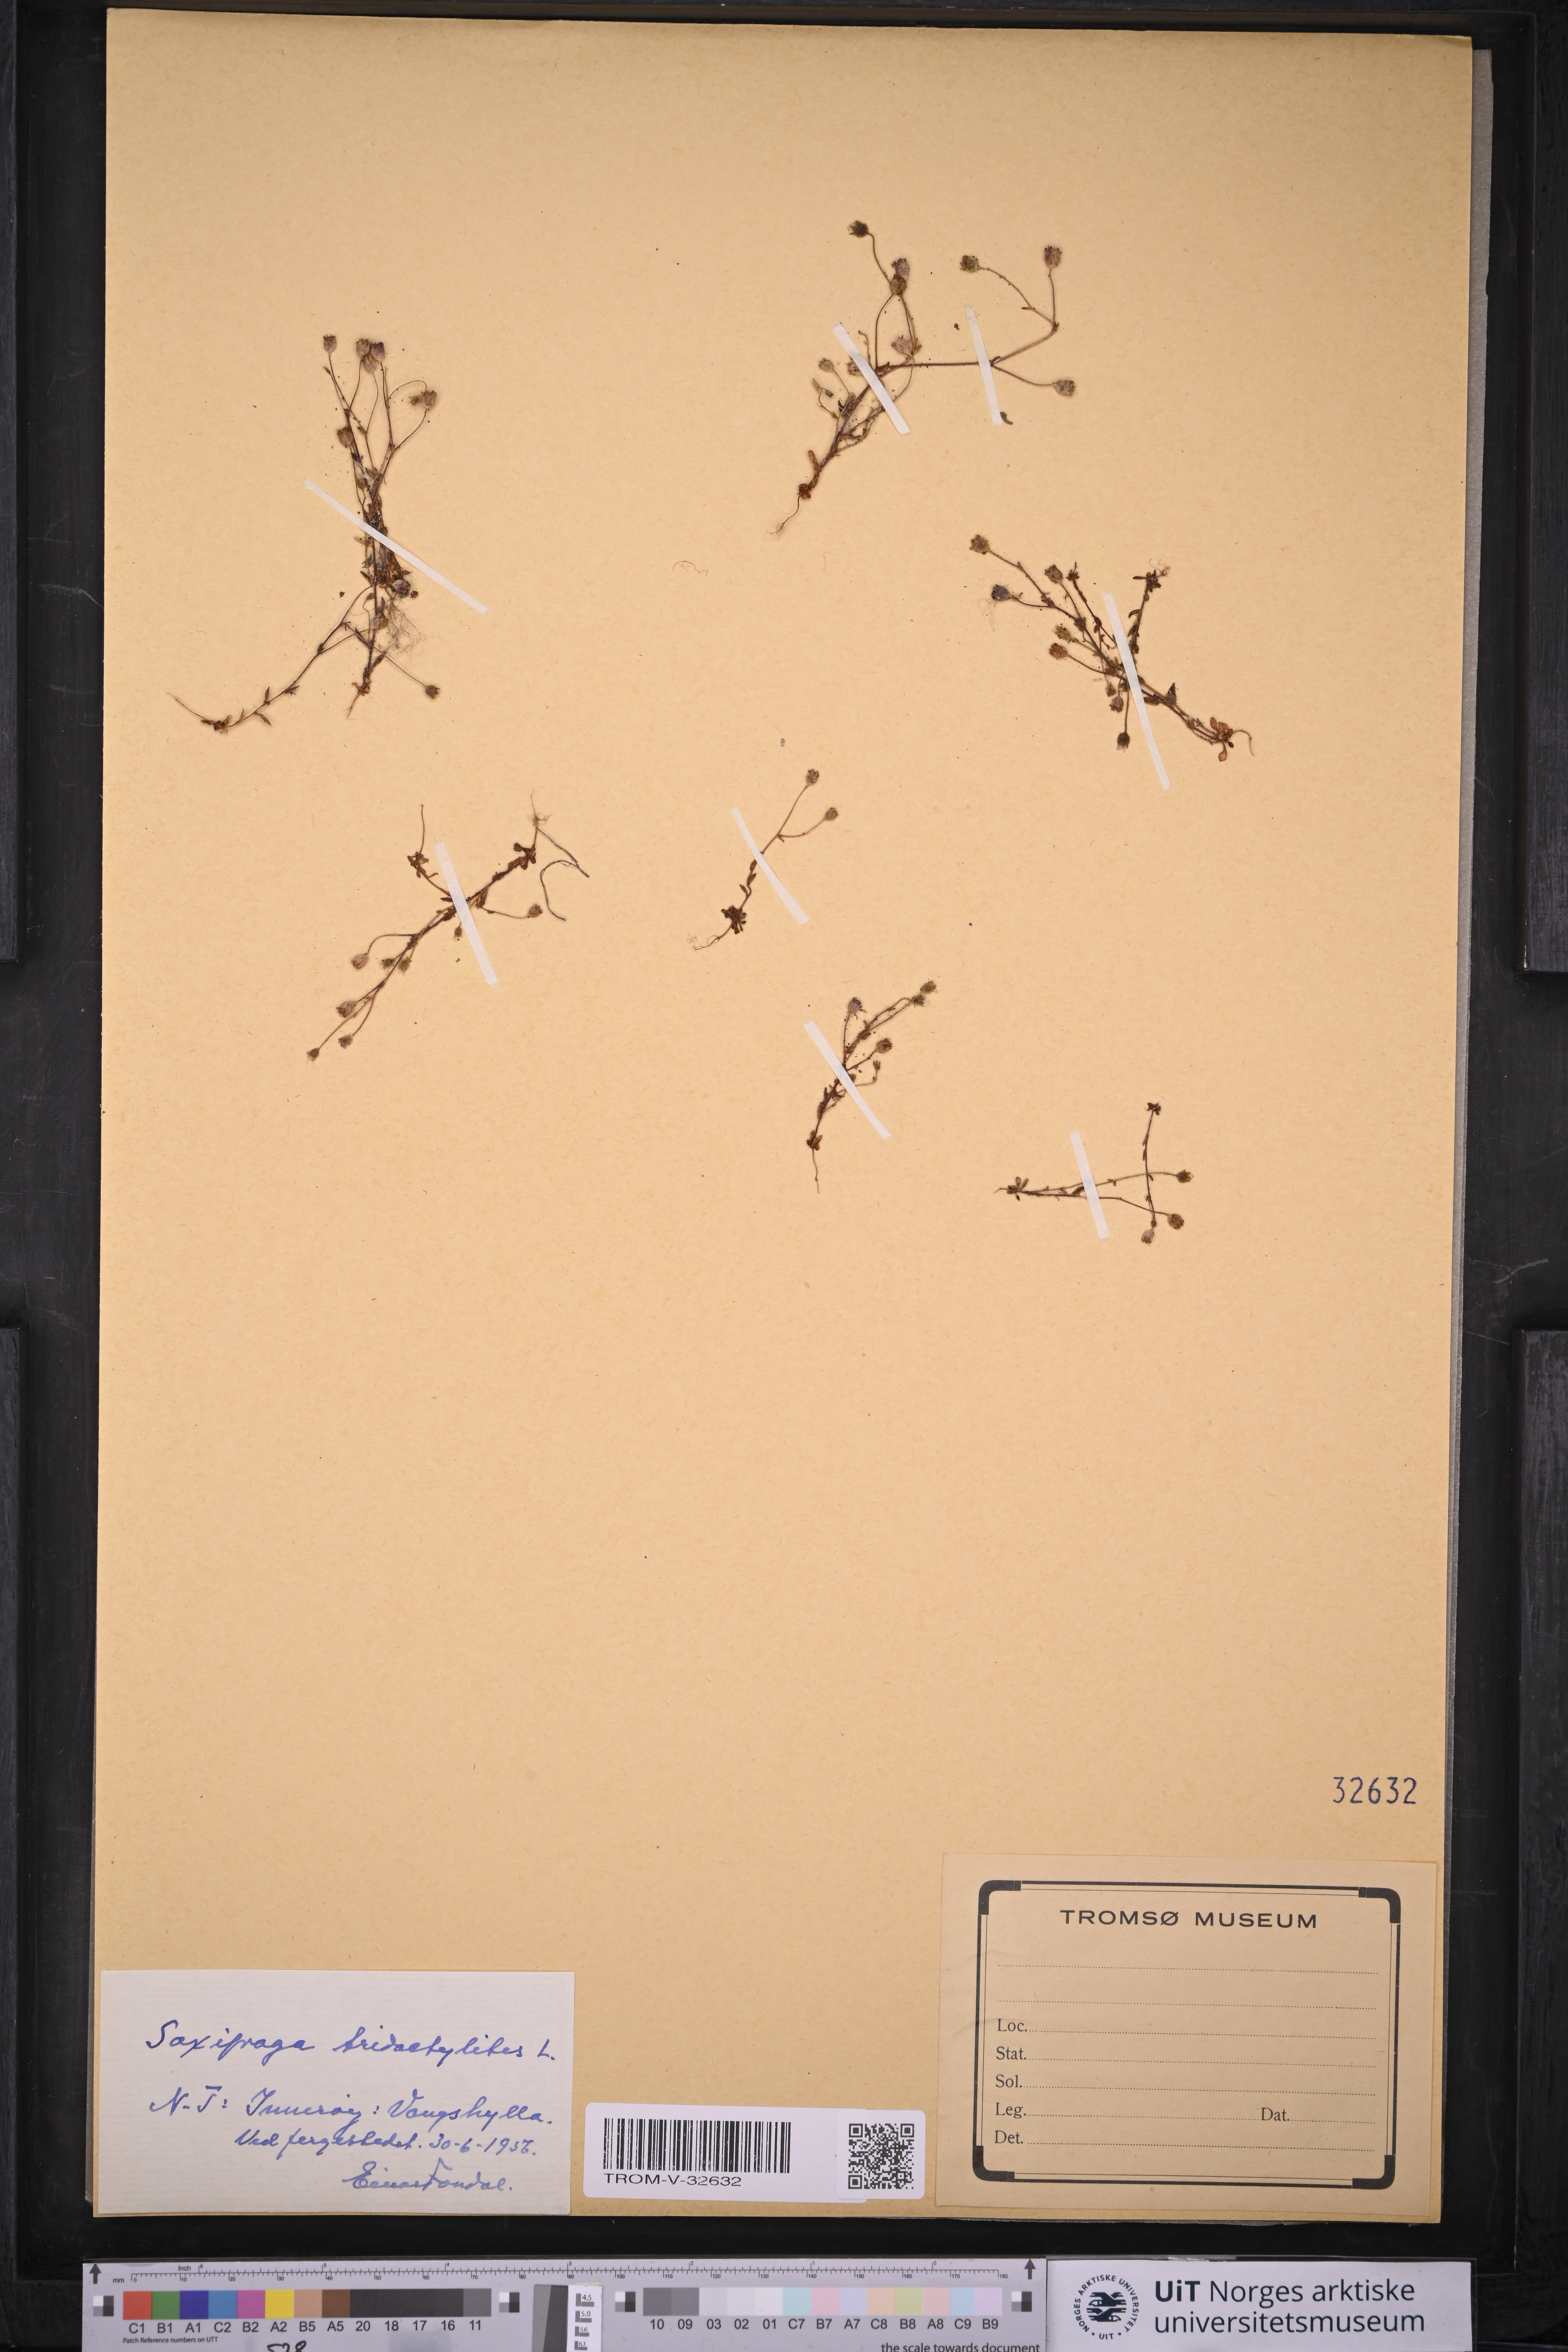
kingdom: Plantae
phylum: Tracheophyta
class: Magnoliopsida
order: Saxifragales
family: Saxifragaceae
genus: Saxifraga
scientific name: Saxifraga tridactylites
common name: Rue-leaved saxifrage
